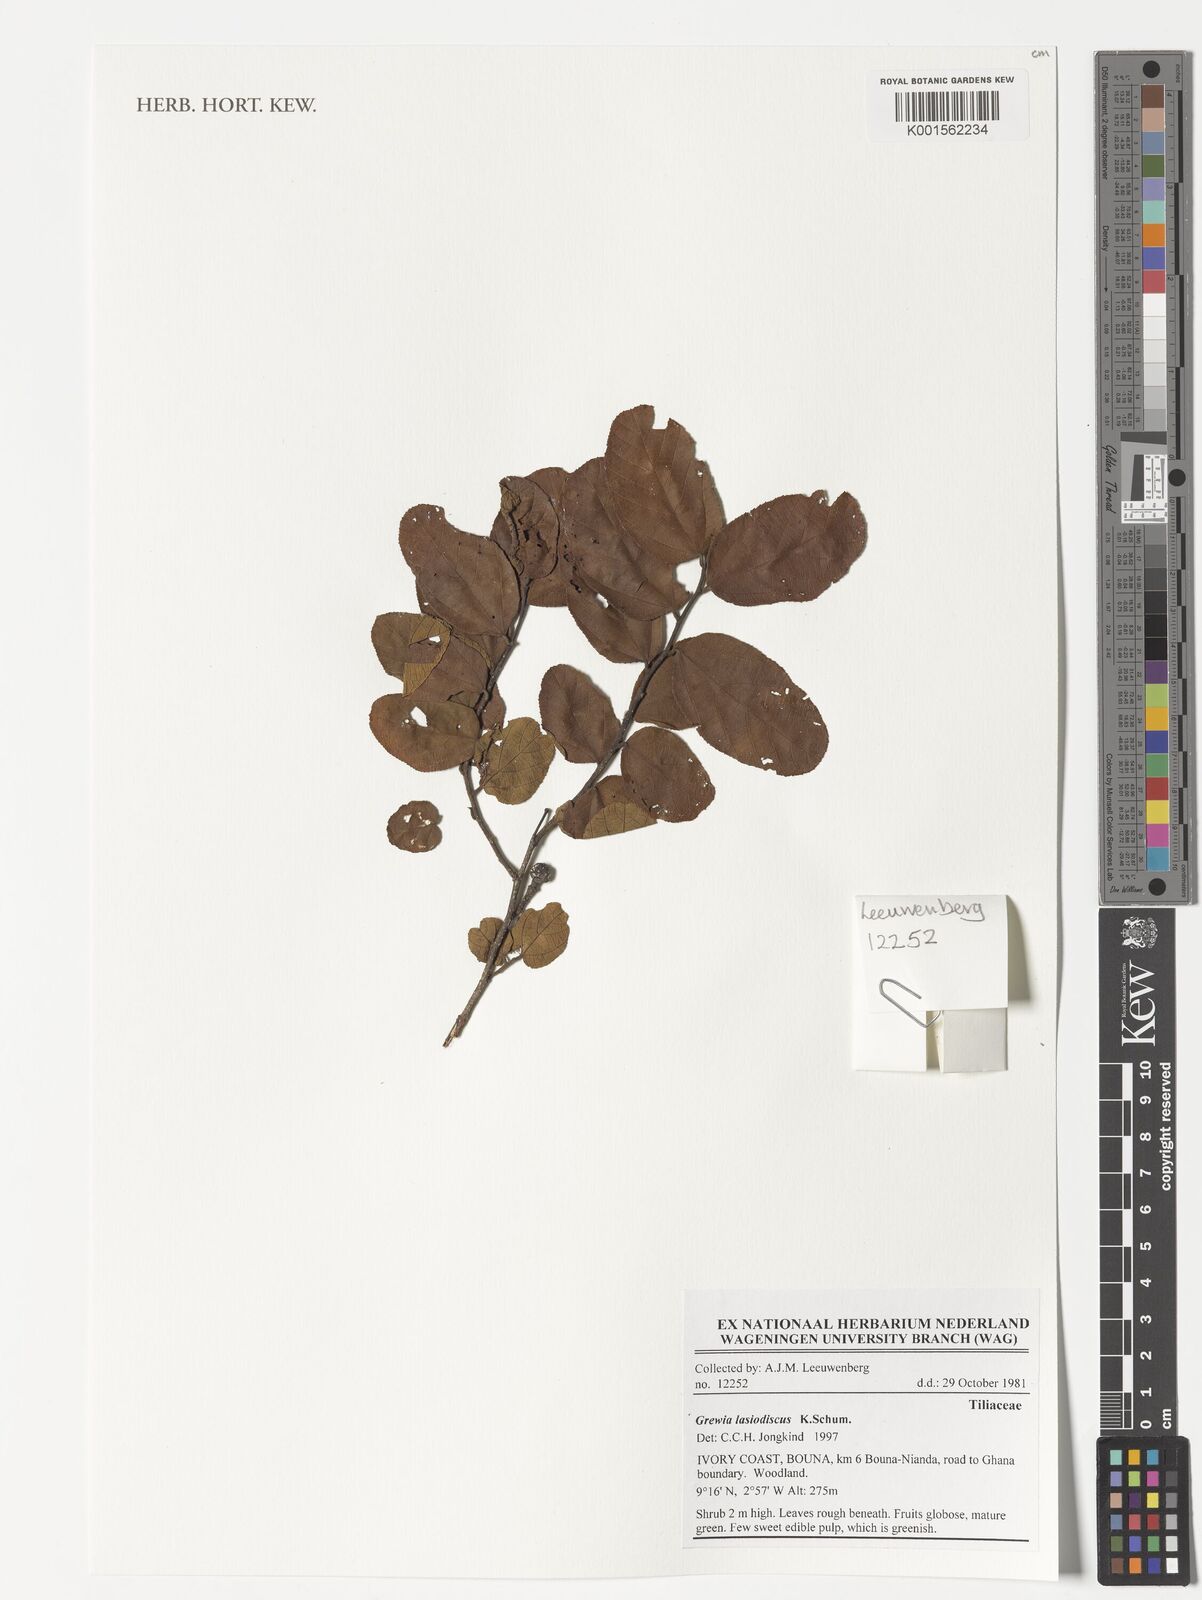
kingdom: Plantae
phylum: Tracheophyta
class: Magnoliopsida
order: Malvales
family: Malvaceae
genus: Grewia
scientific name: Grewia lasiodiscus
